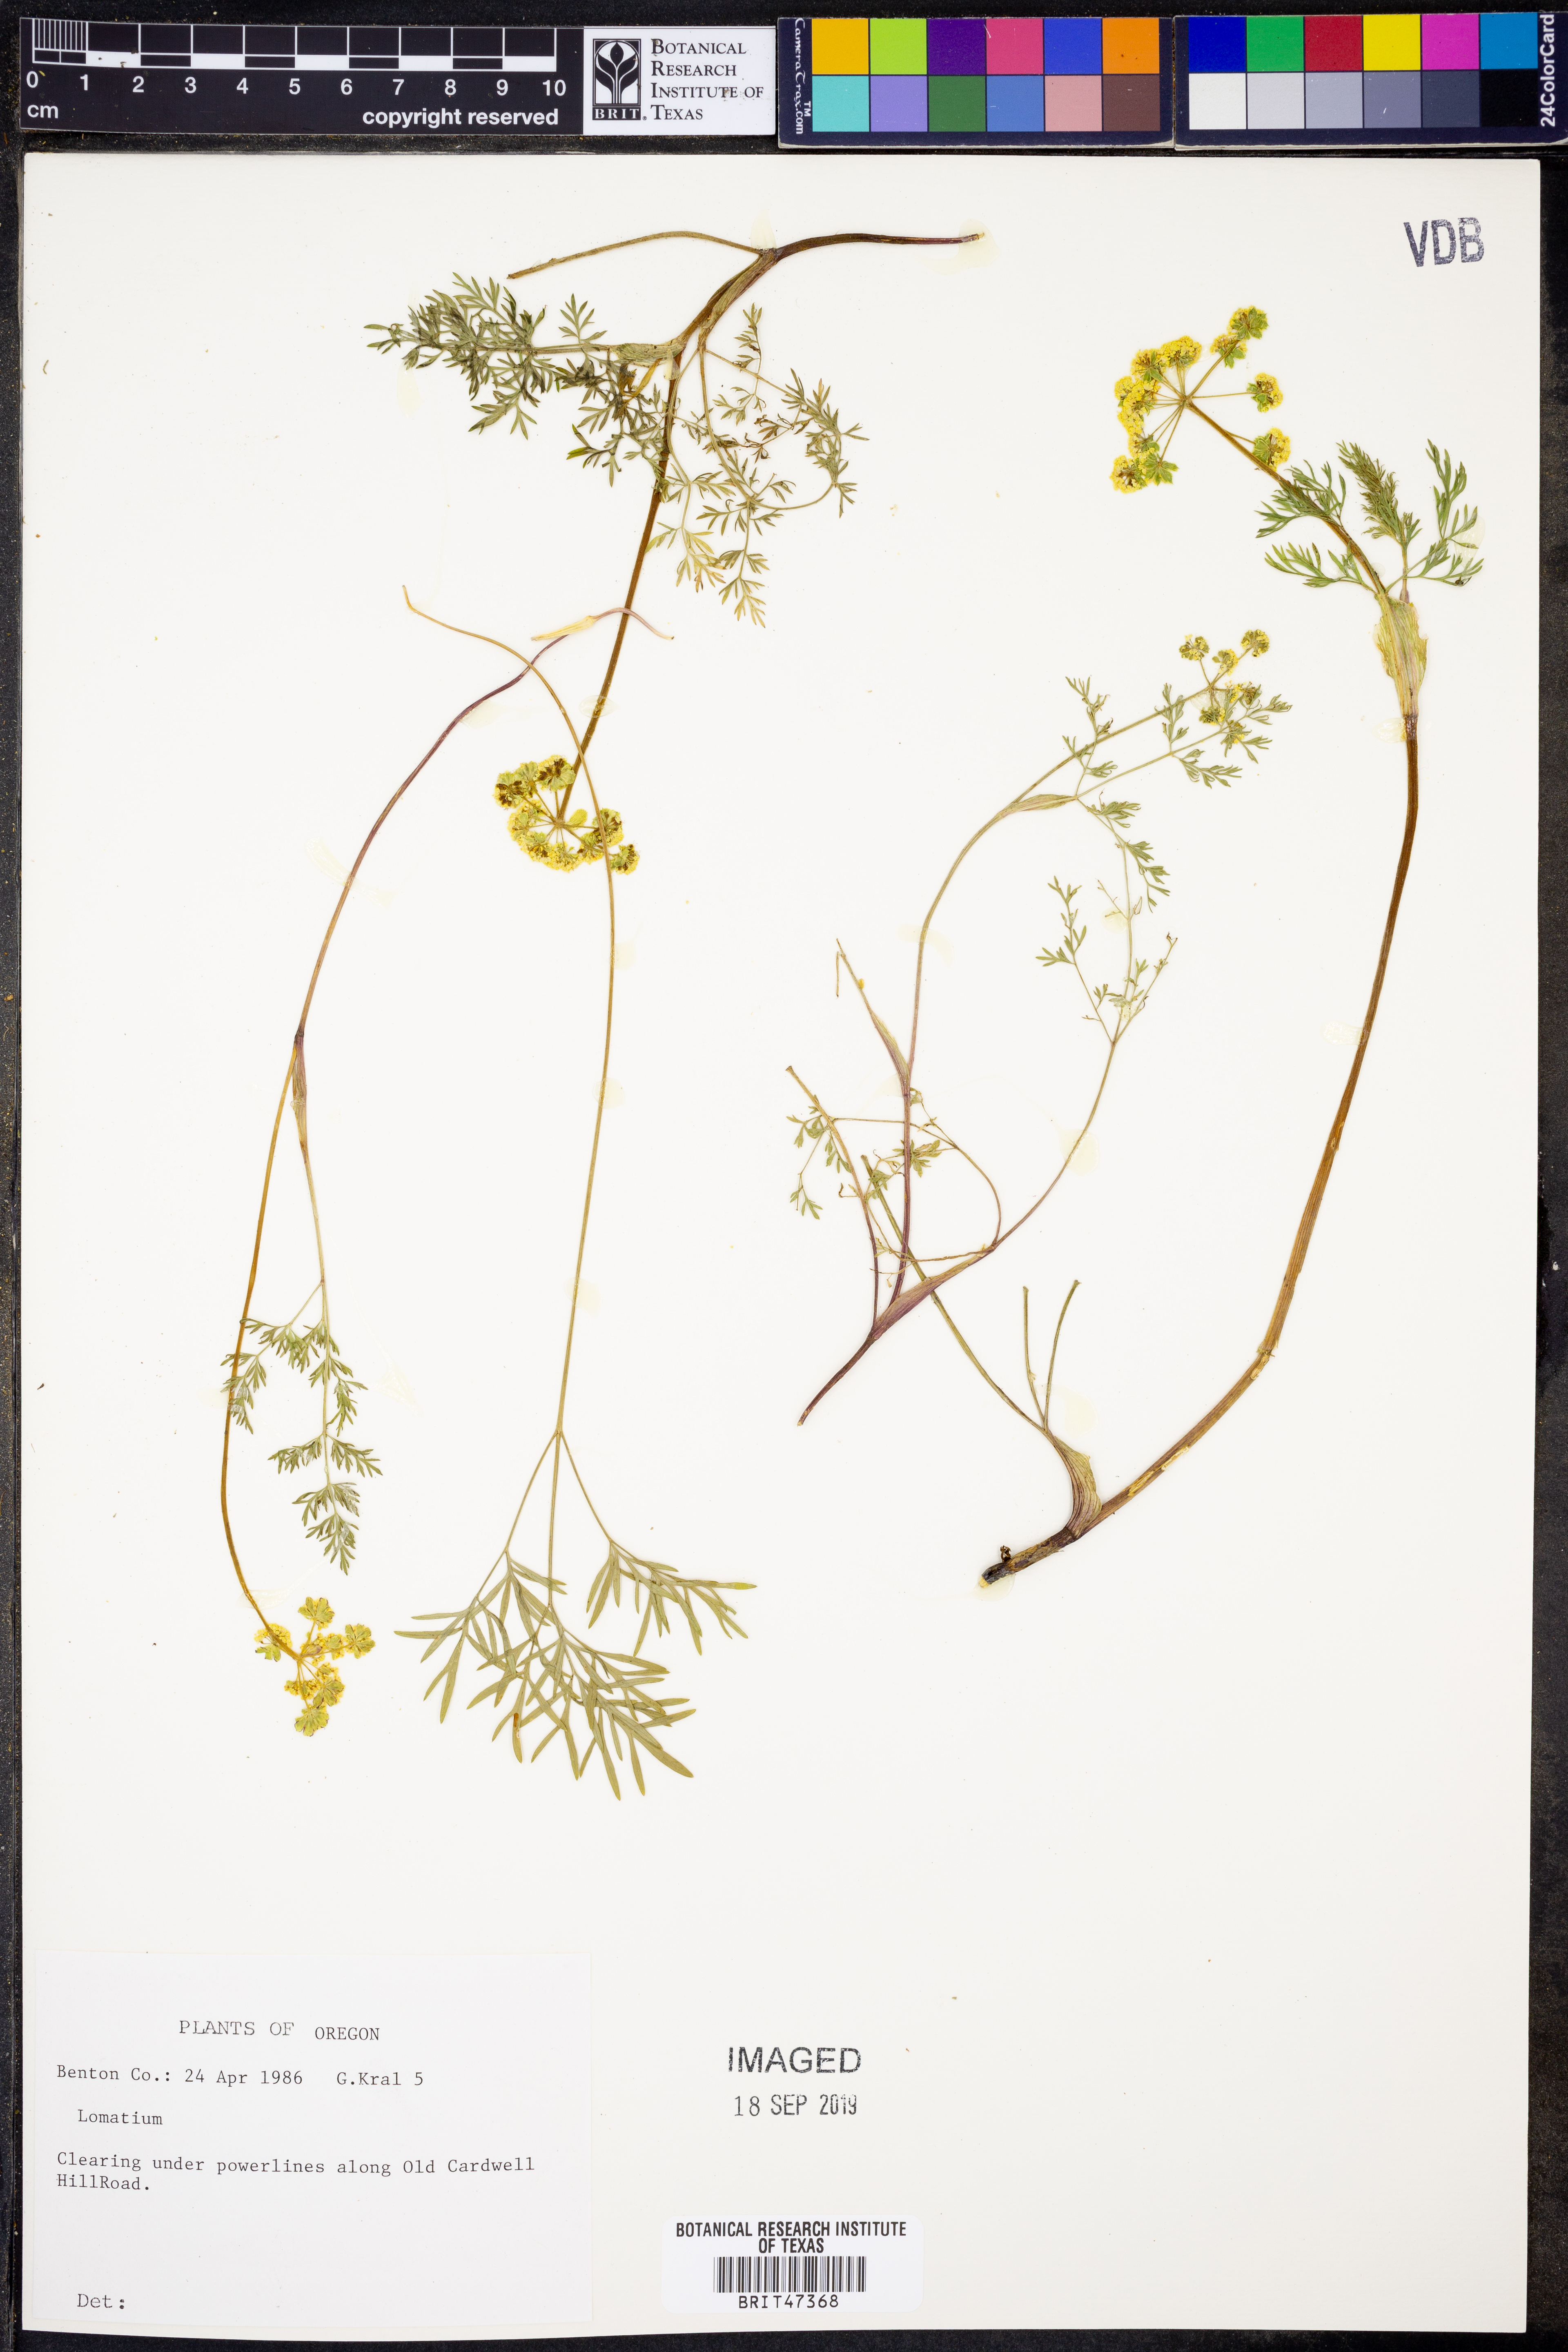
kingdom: Plantae
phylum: Tracheophyta
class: Magnoliopsida
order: Apiales
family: Apiaceae
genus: Lomatium
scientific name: Lomatium
